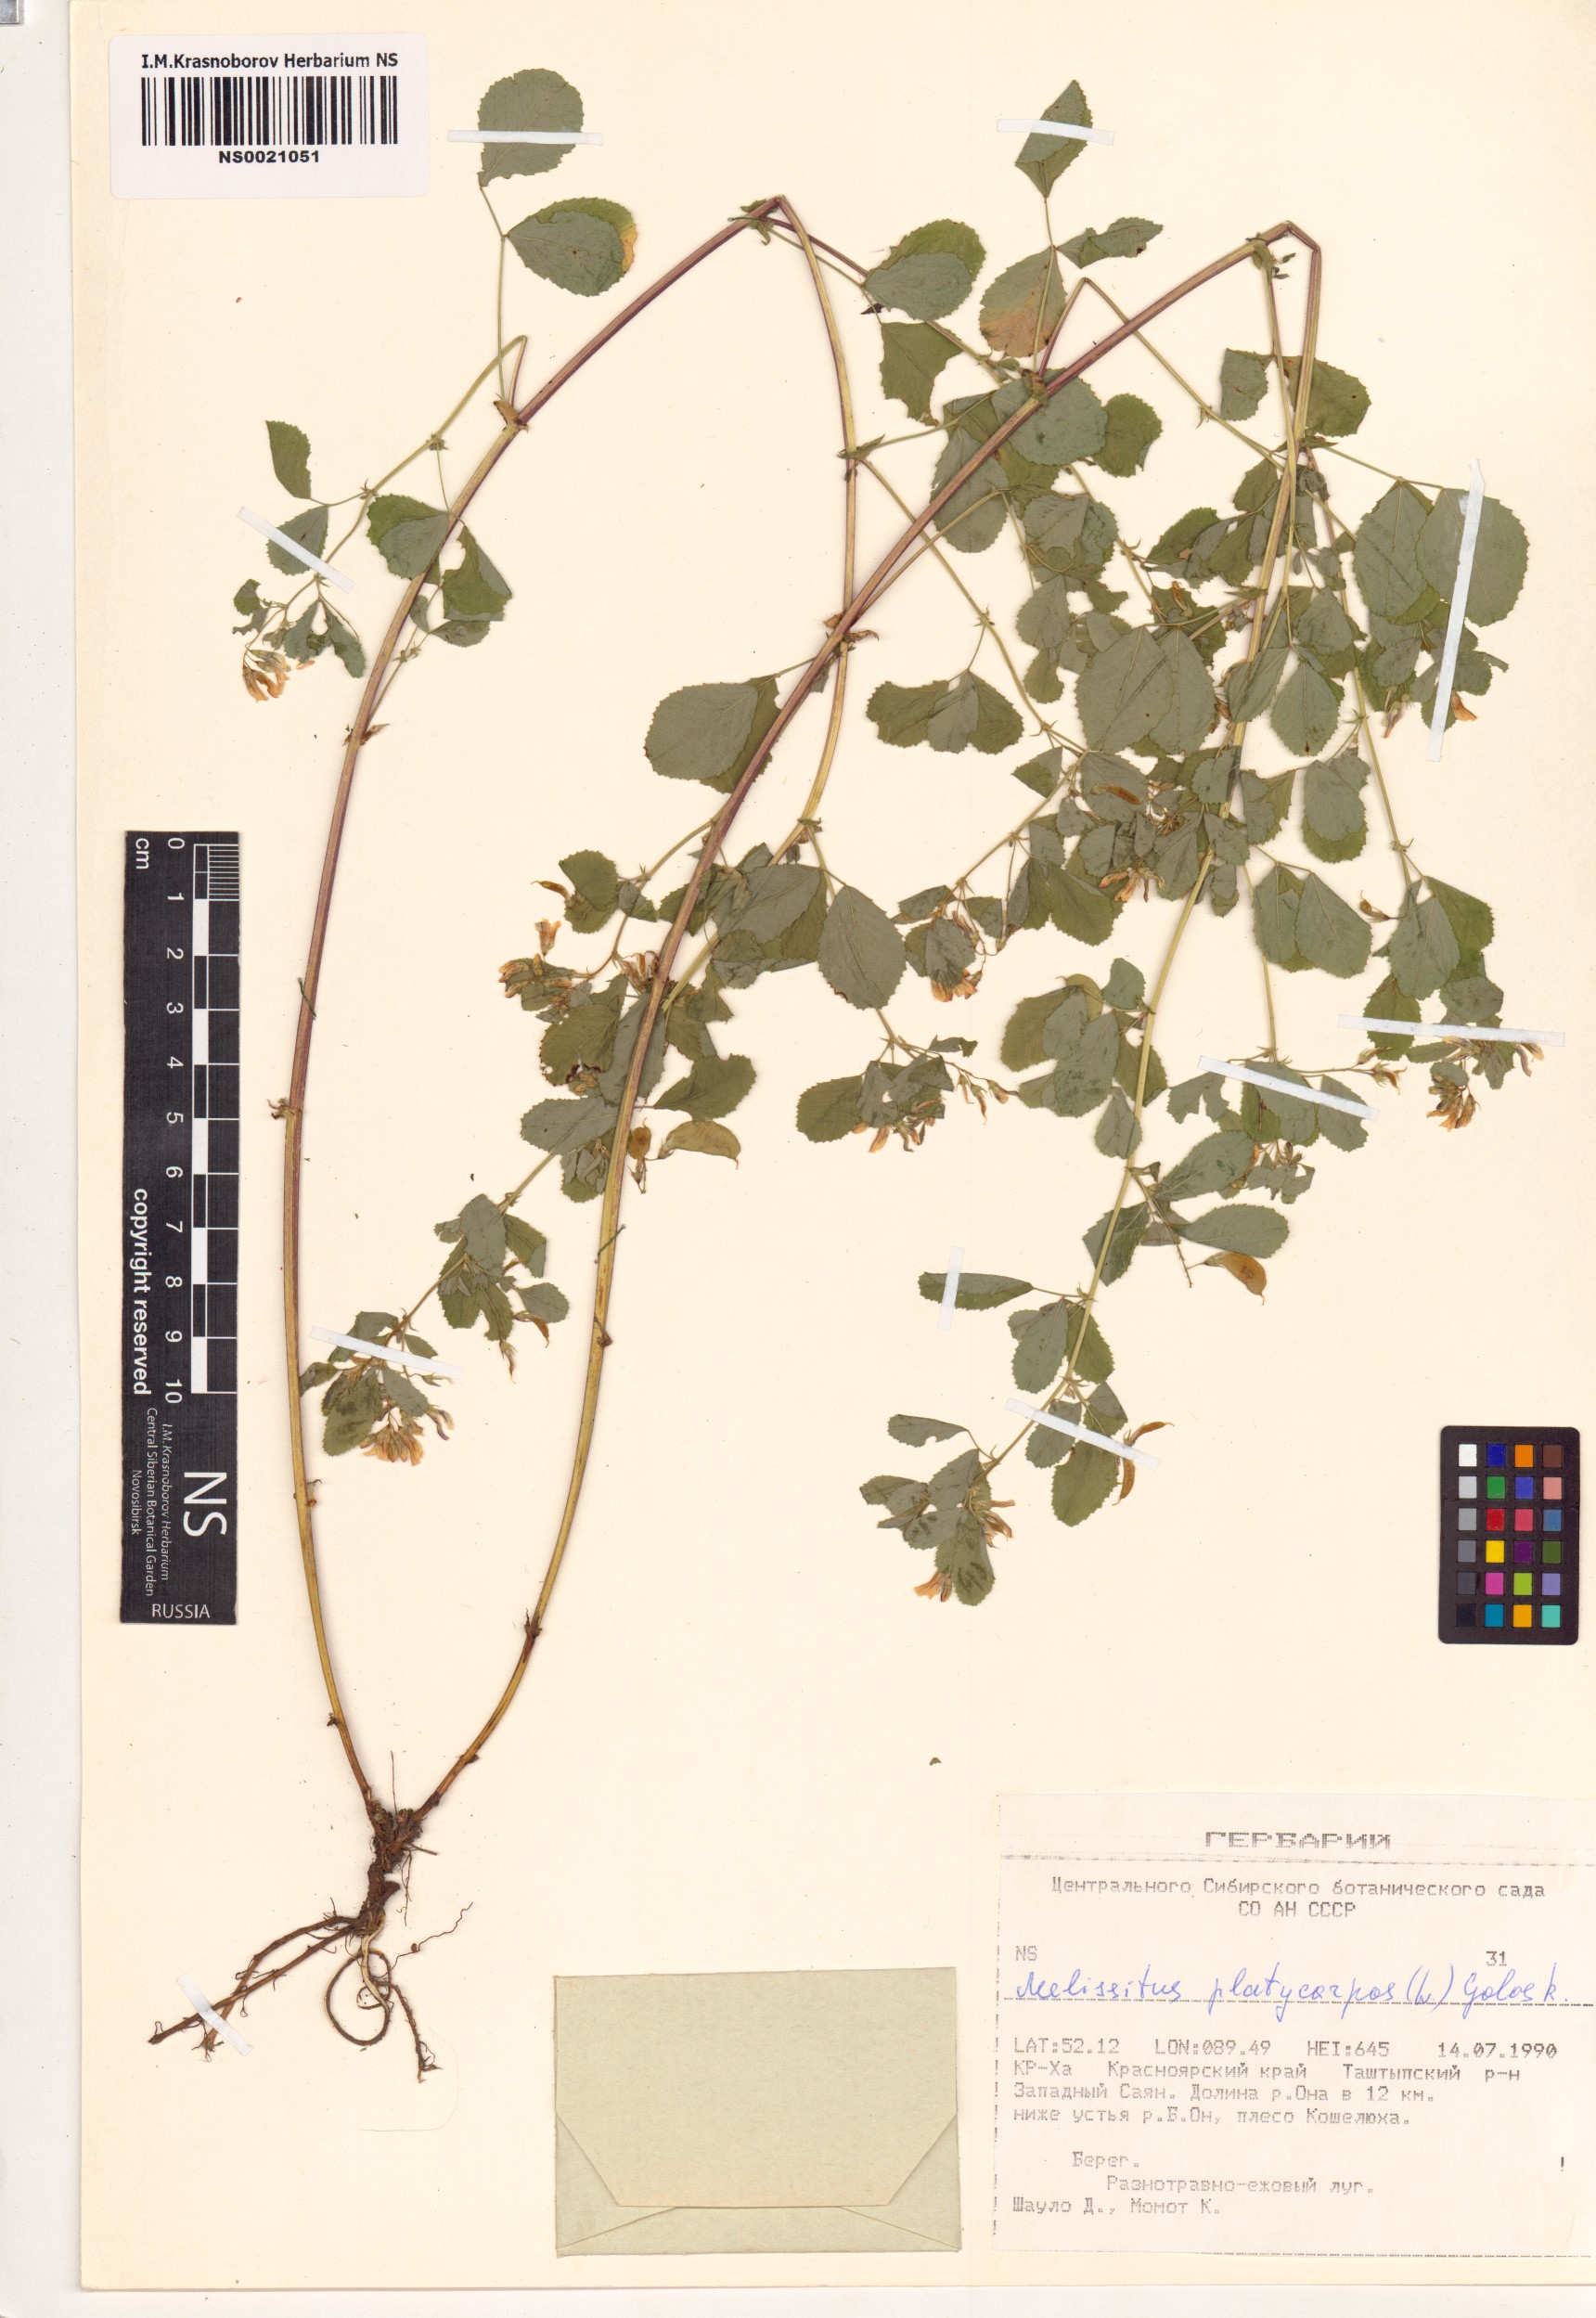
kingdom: Plantae
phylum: Tracheophyta
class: Magnoliopsida
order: Fabales
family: Fabaceae
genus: Medicago
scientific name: Medicago platycarpos
